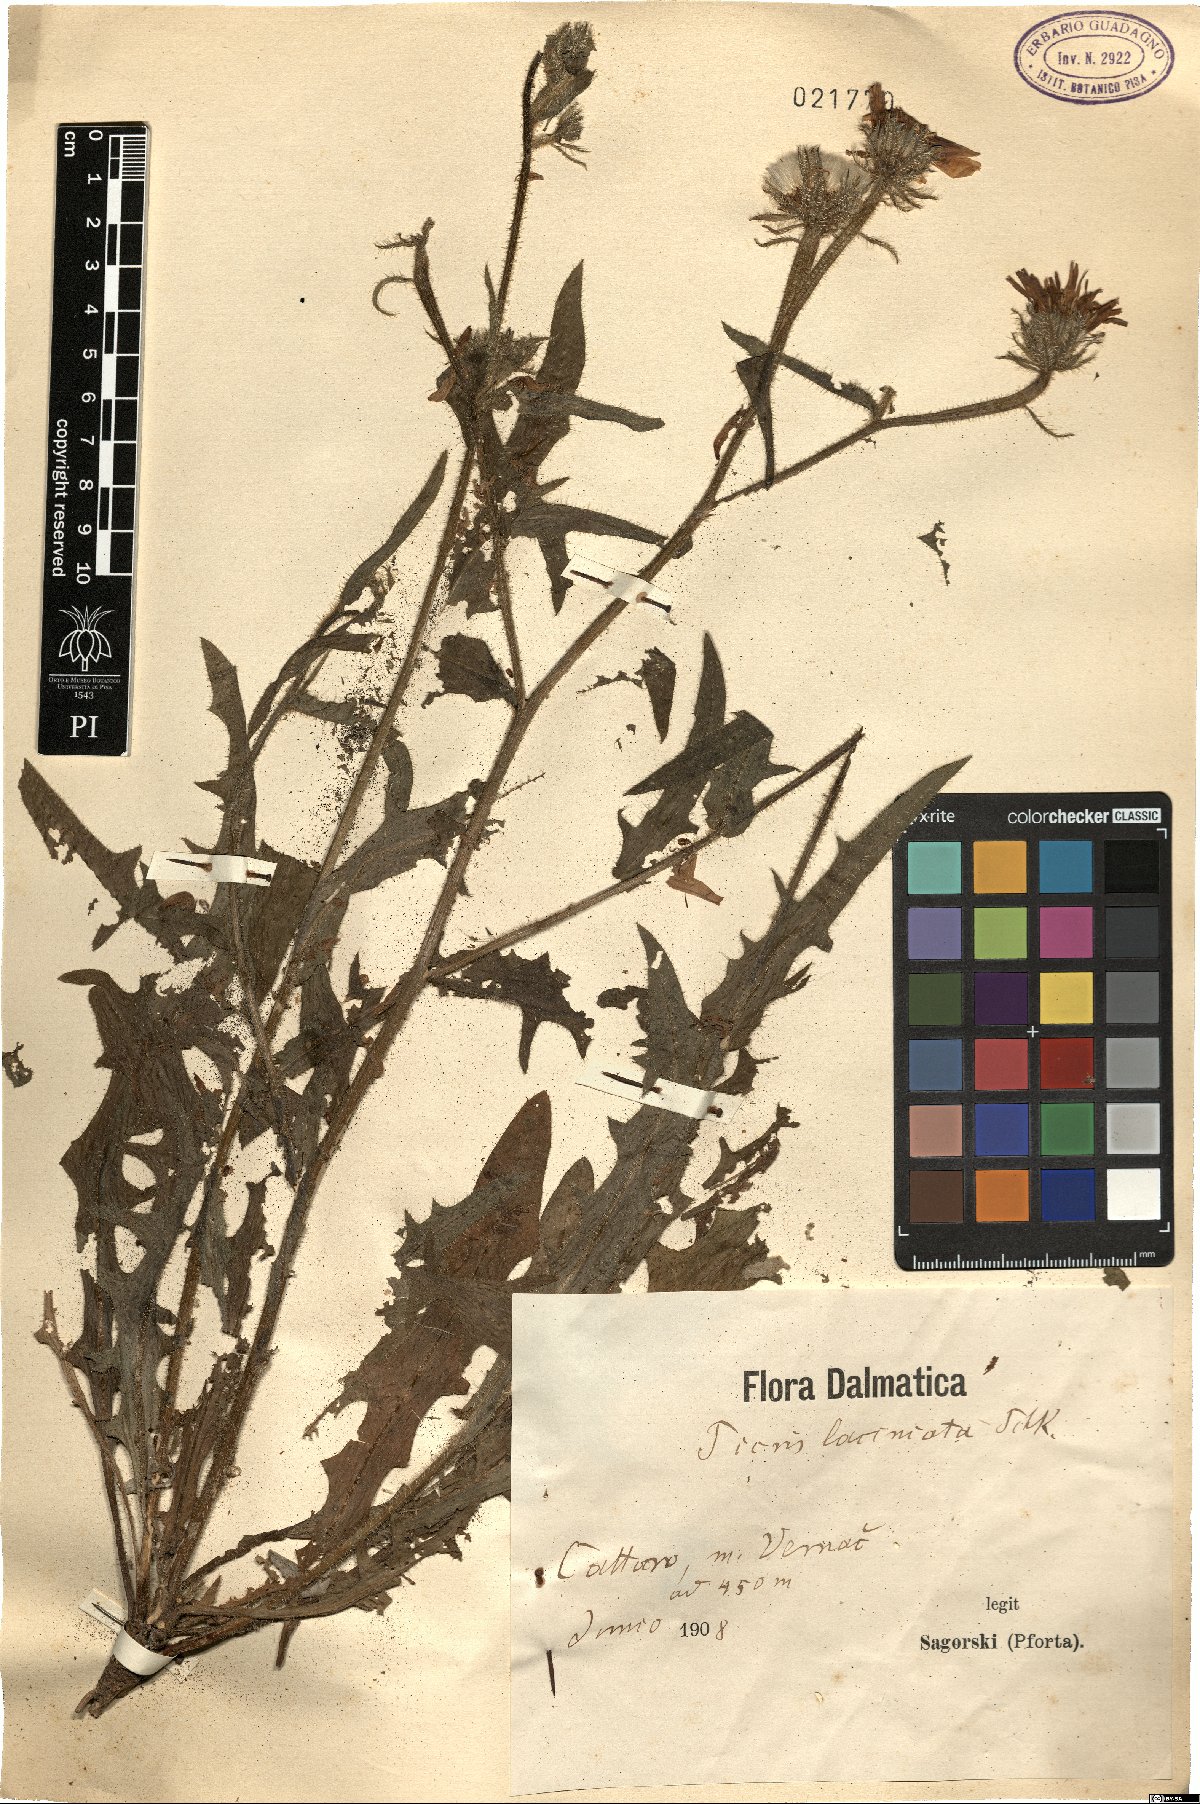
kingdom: Plantae
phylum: Tracheophyta
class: Magnoliopsida
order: Asterales
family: Asteraceae
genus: Picris
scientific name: Picris hispidissima
